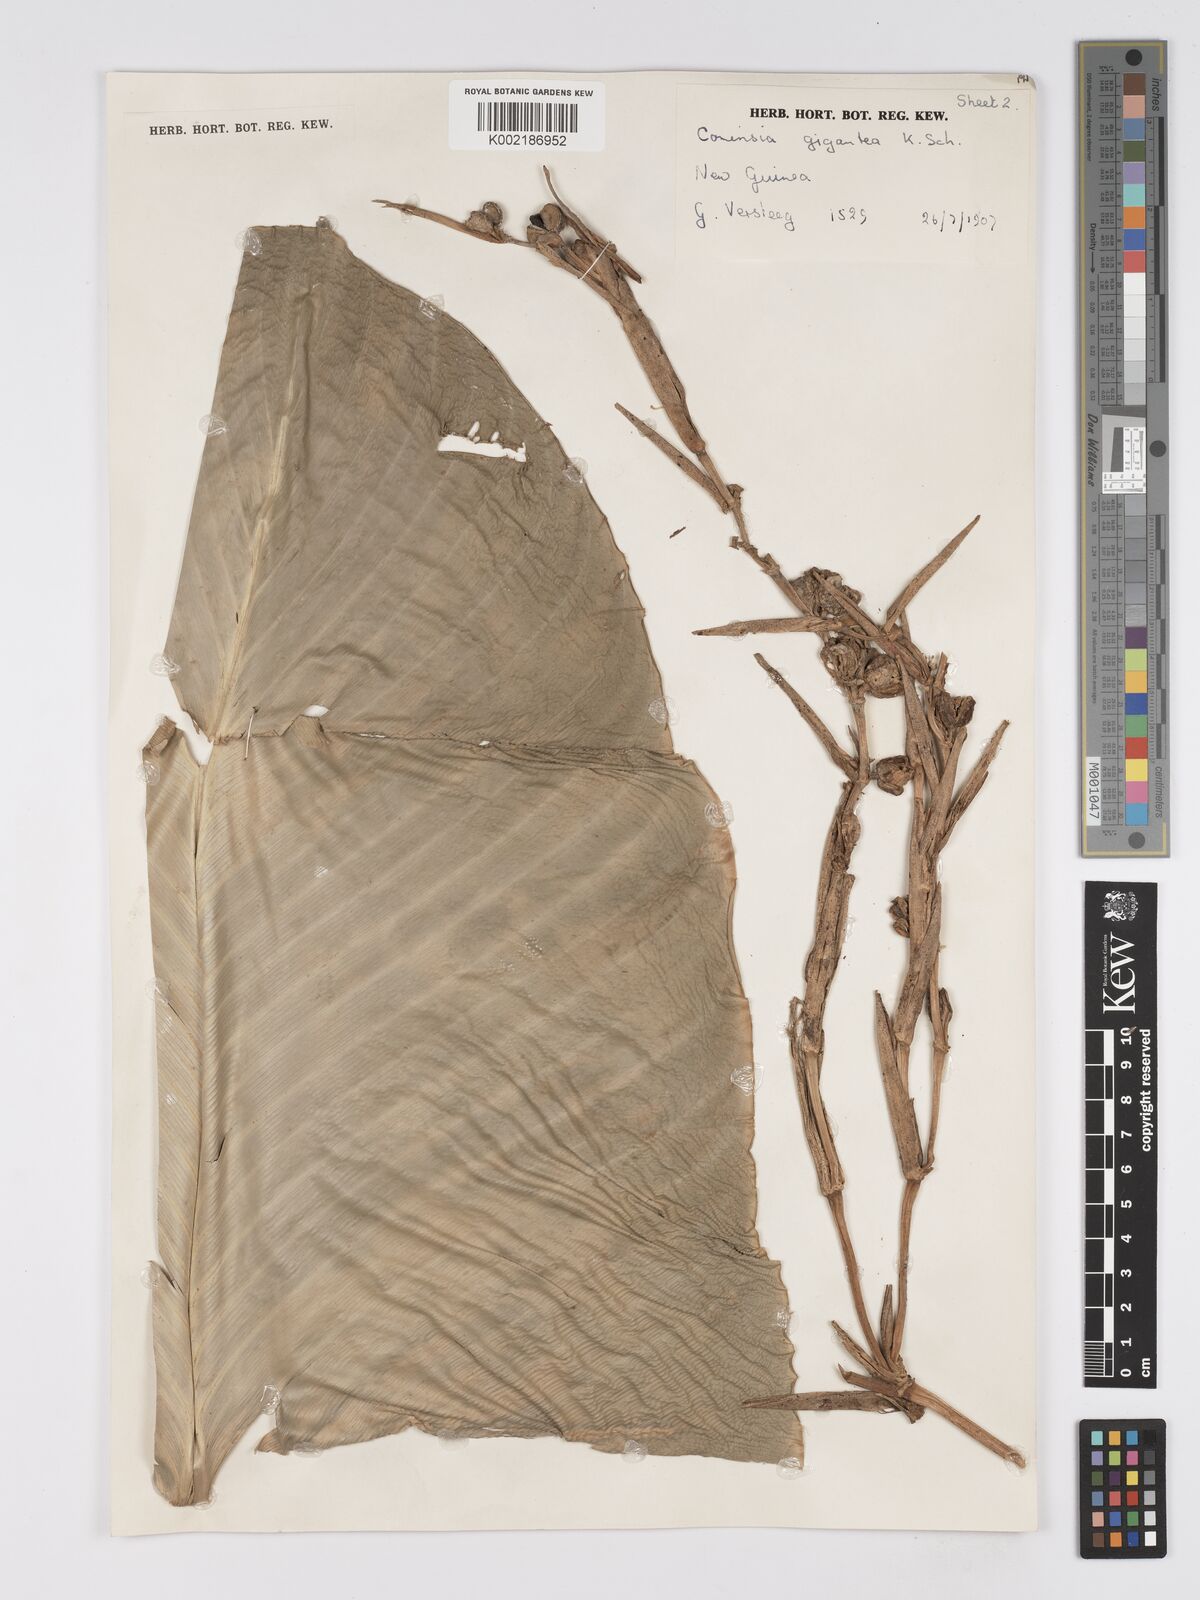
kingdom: Plantae
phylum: Tracheophyta
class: Liliopsida
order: Zingiberales
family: Marantaceae
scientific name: Marantaceae
